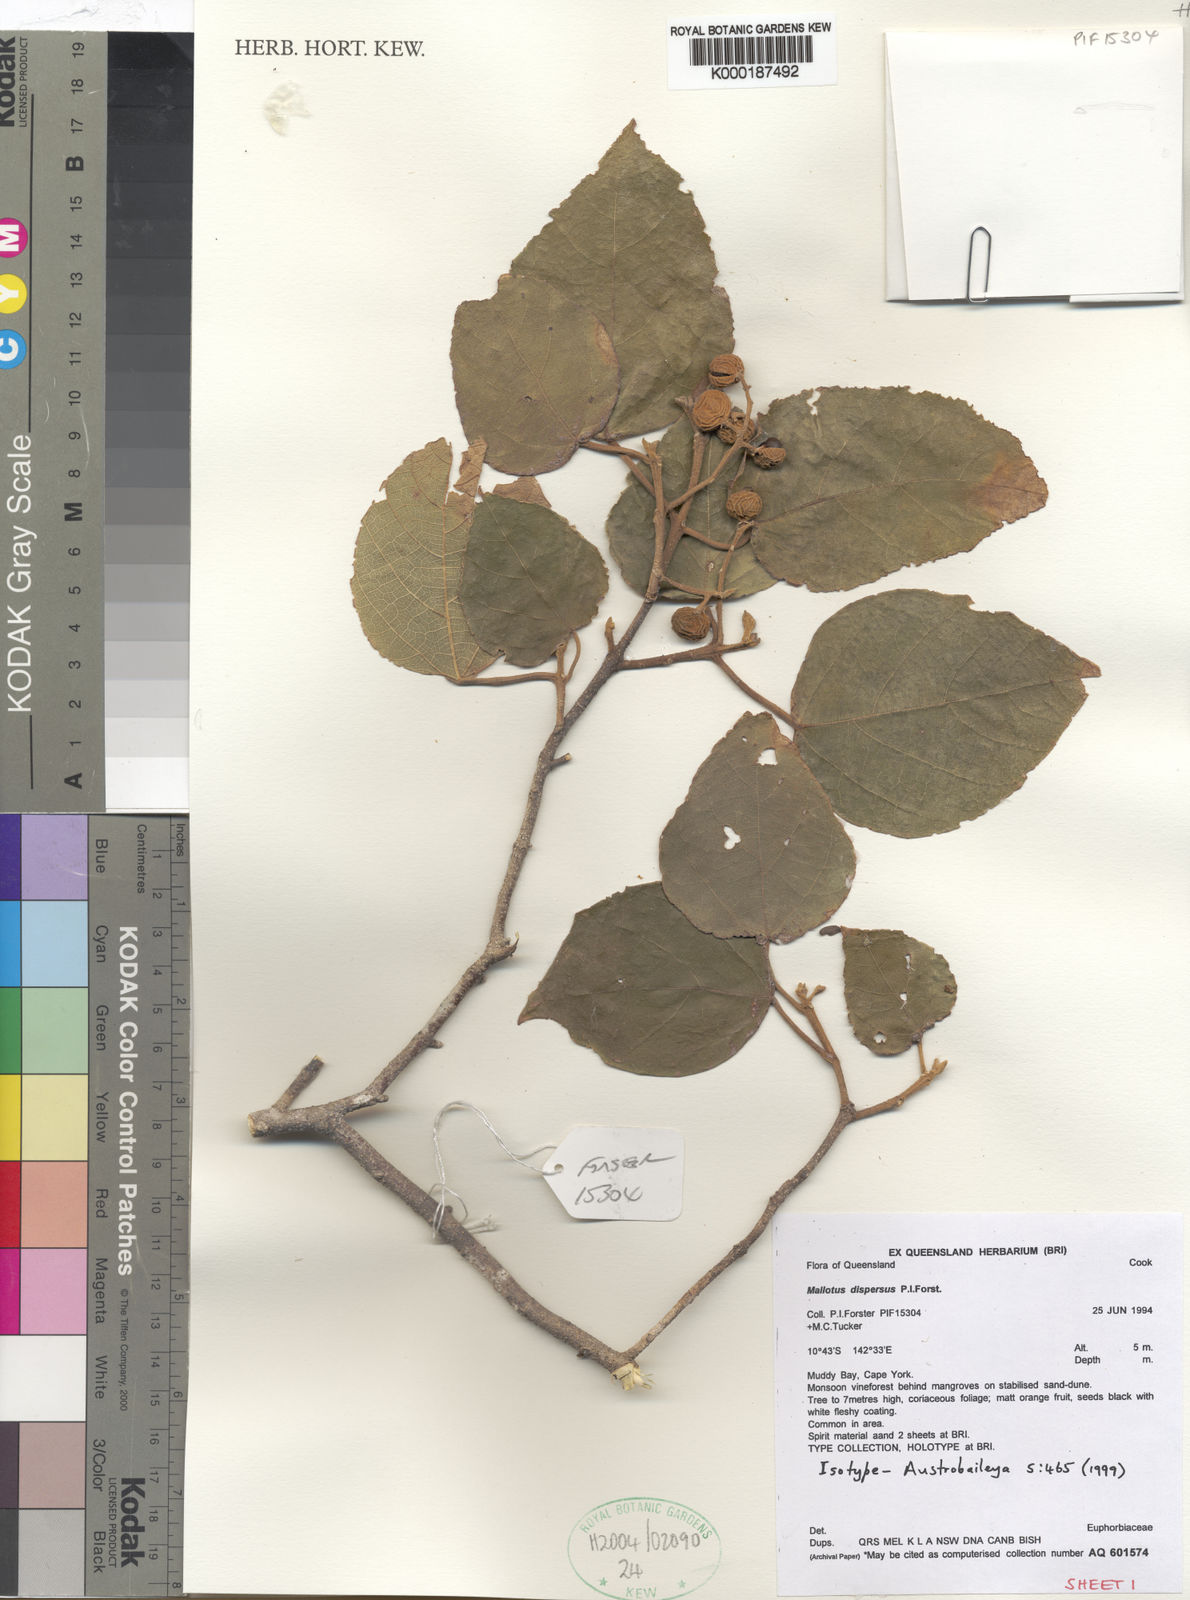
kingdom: Plantae
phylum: Tracheophyta
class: Magnoliopsida
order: Malpighiales
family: Euphorbiaceae
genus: Mallotus
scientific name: Mallotus dispersus
